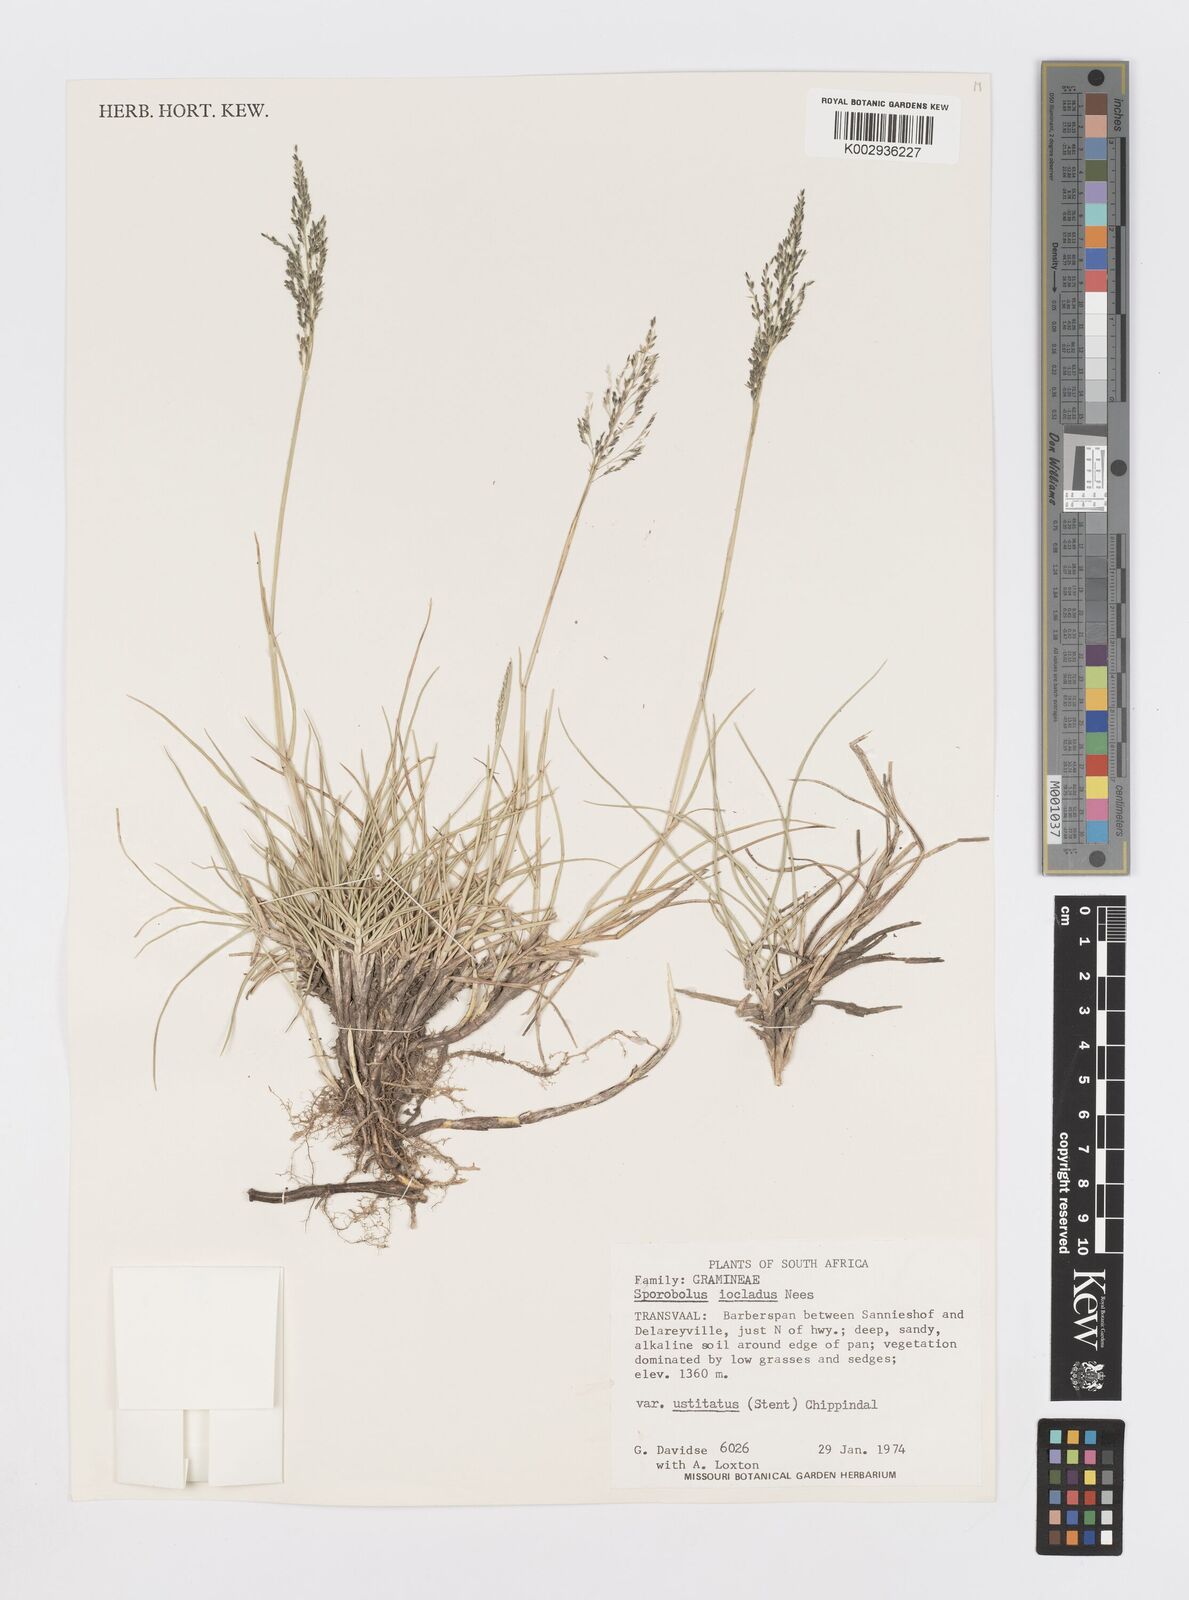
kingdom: Plantae
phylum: Tracheophyta
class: Liliopsida
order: Poales
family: Poaceae
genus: Sporobolus
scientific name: Sporobolus ioclados
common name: Pan dropseed
